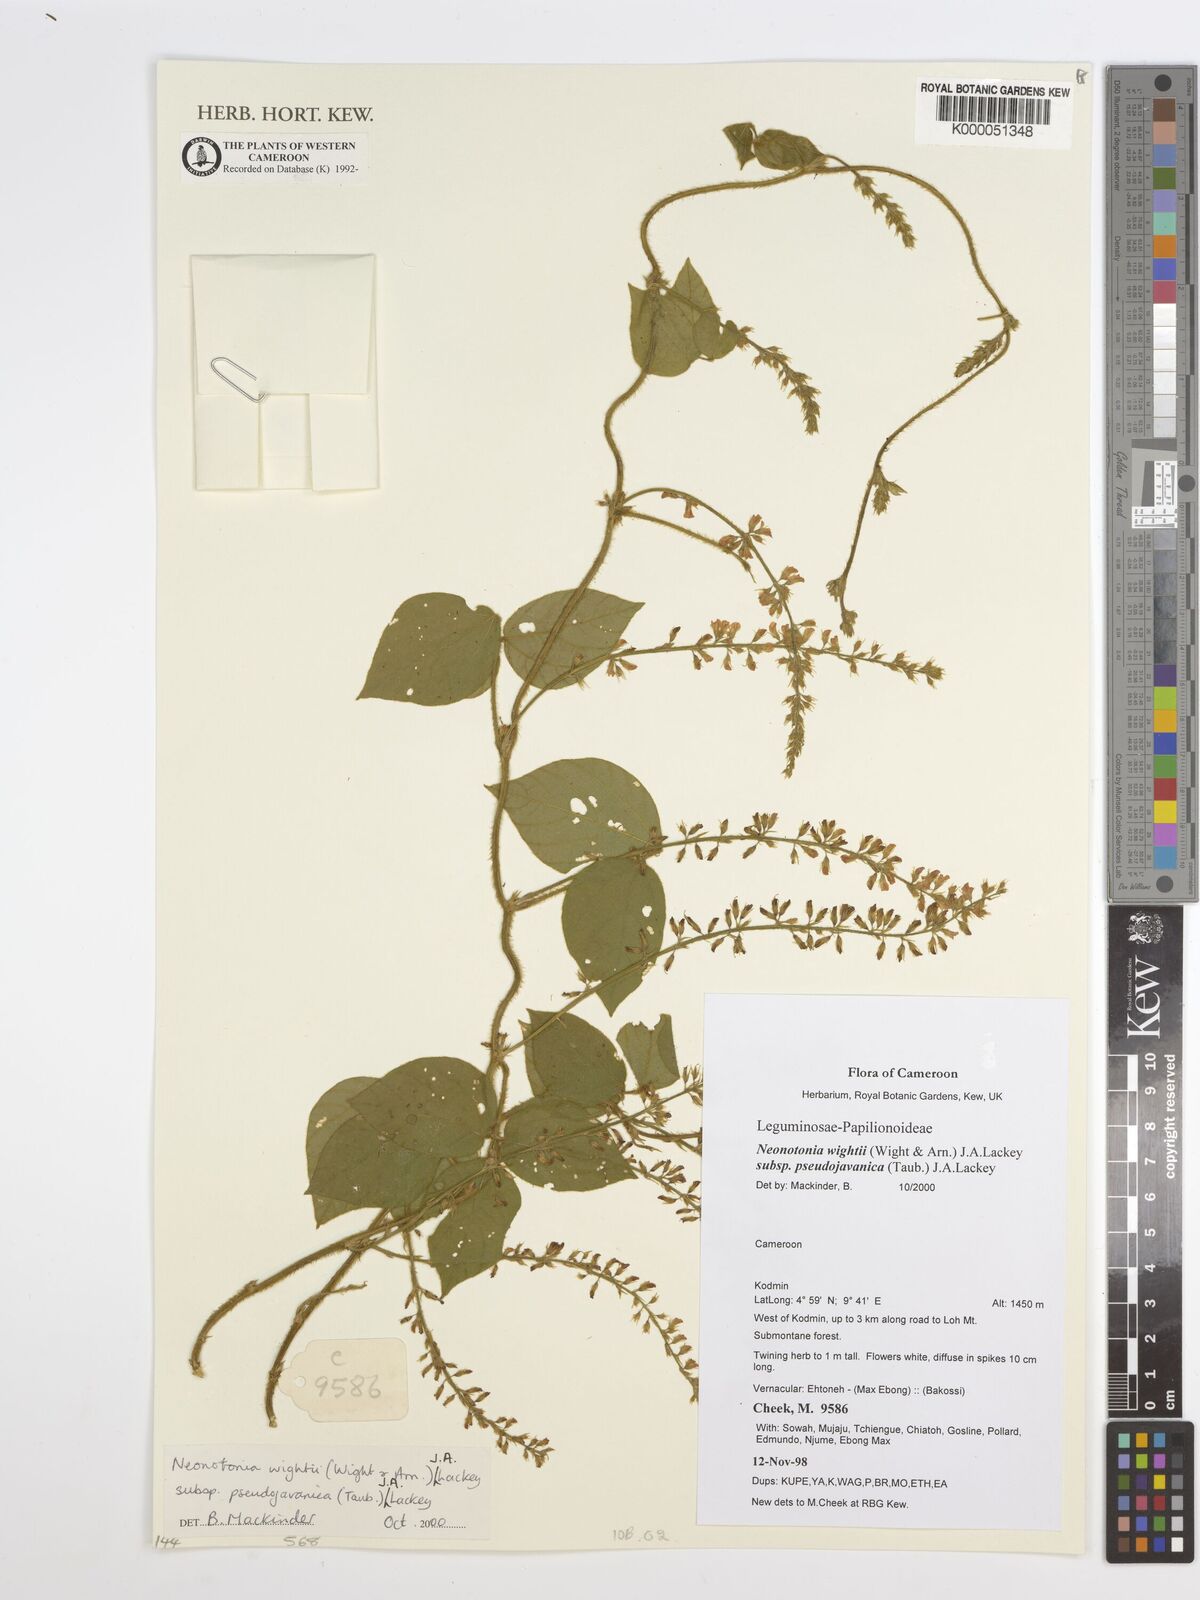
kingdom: Plantae
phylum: Tracheophyta
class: Magnoliopsida
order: Fabales
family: Fabaceae
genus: Neonotonia
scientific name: Neonotonia wightii
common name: Perennial soybean
